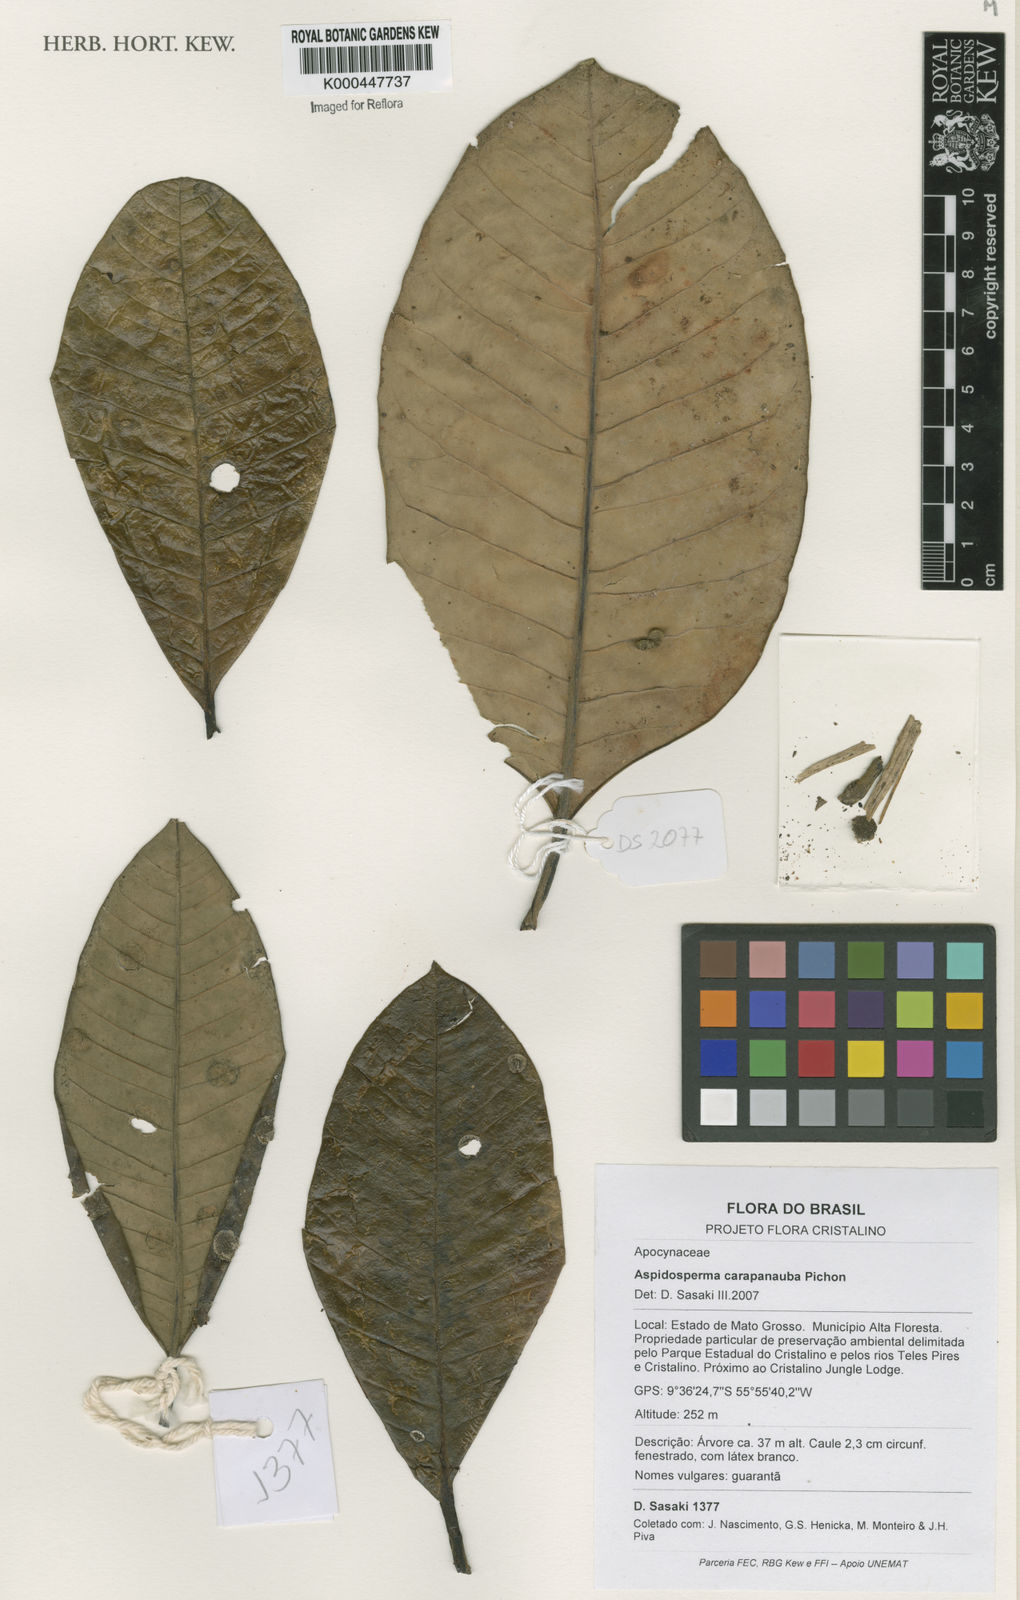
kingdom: Plantae
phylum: Tracheophyta
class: Magnoliopsida
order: Gentianales
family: Apocynaceae
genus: Aspidosperma
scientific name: Aspidosperma carapanauba
